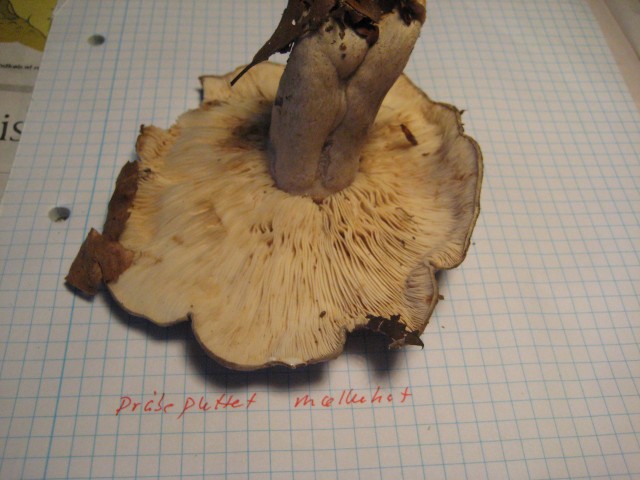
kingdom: Fungi
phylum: Basidiomycota
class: Agaricomycetes
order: Russulales
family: Russulaceae
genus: Lactarius
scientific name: Lactarius blennius
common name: dråbeplettet mælkehat
